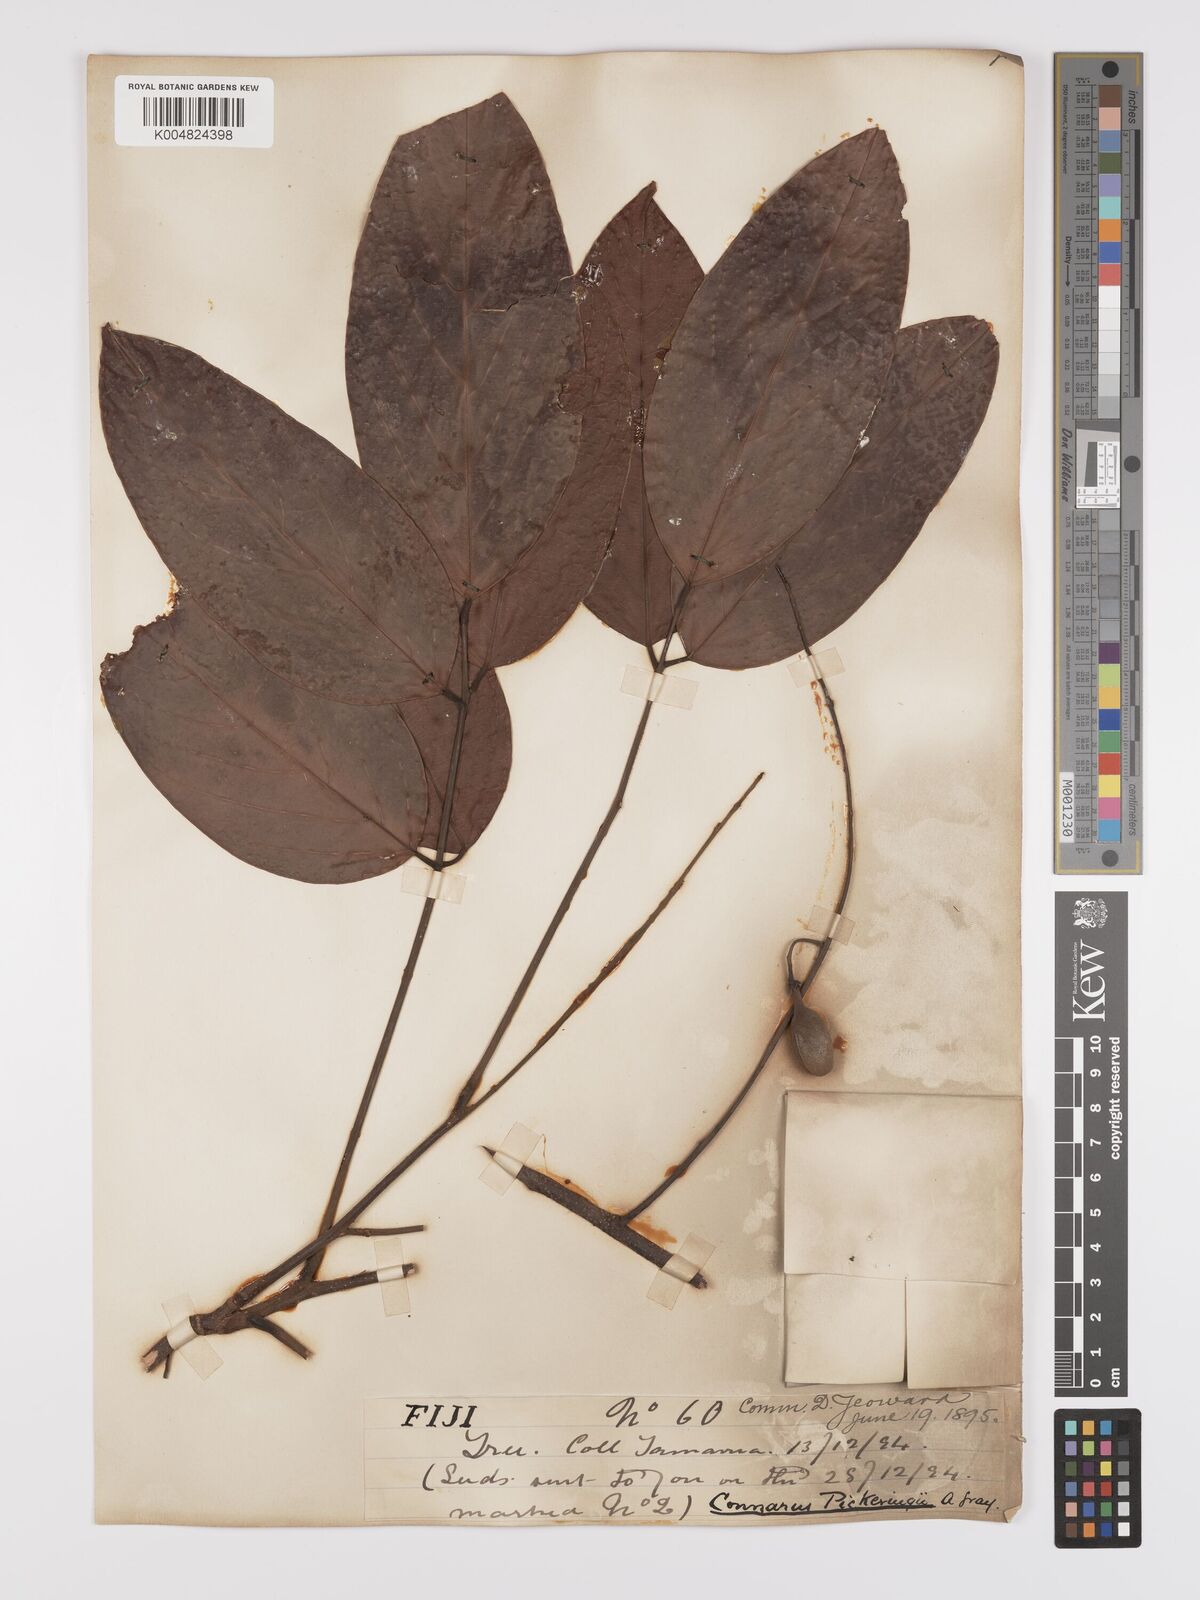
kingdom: Plantae
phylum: Tracheophyta
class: Magnoliopsida
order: Oxalidales
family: Connaraceae
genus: Connarus
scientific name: Connarus pickeringii
